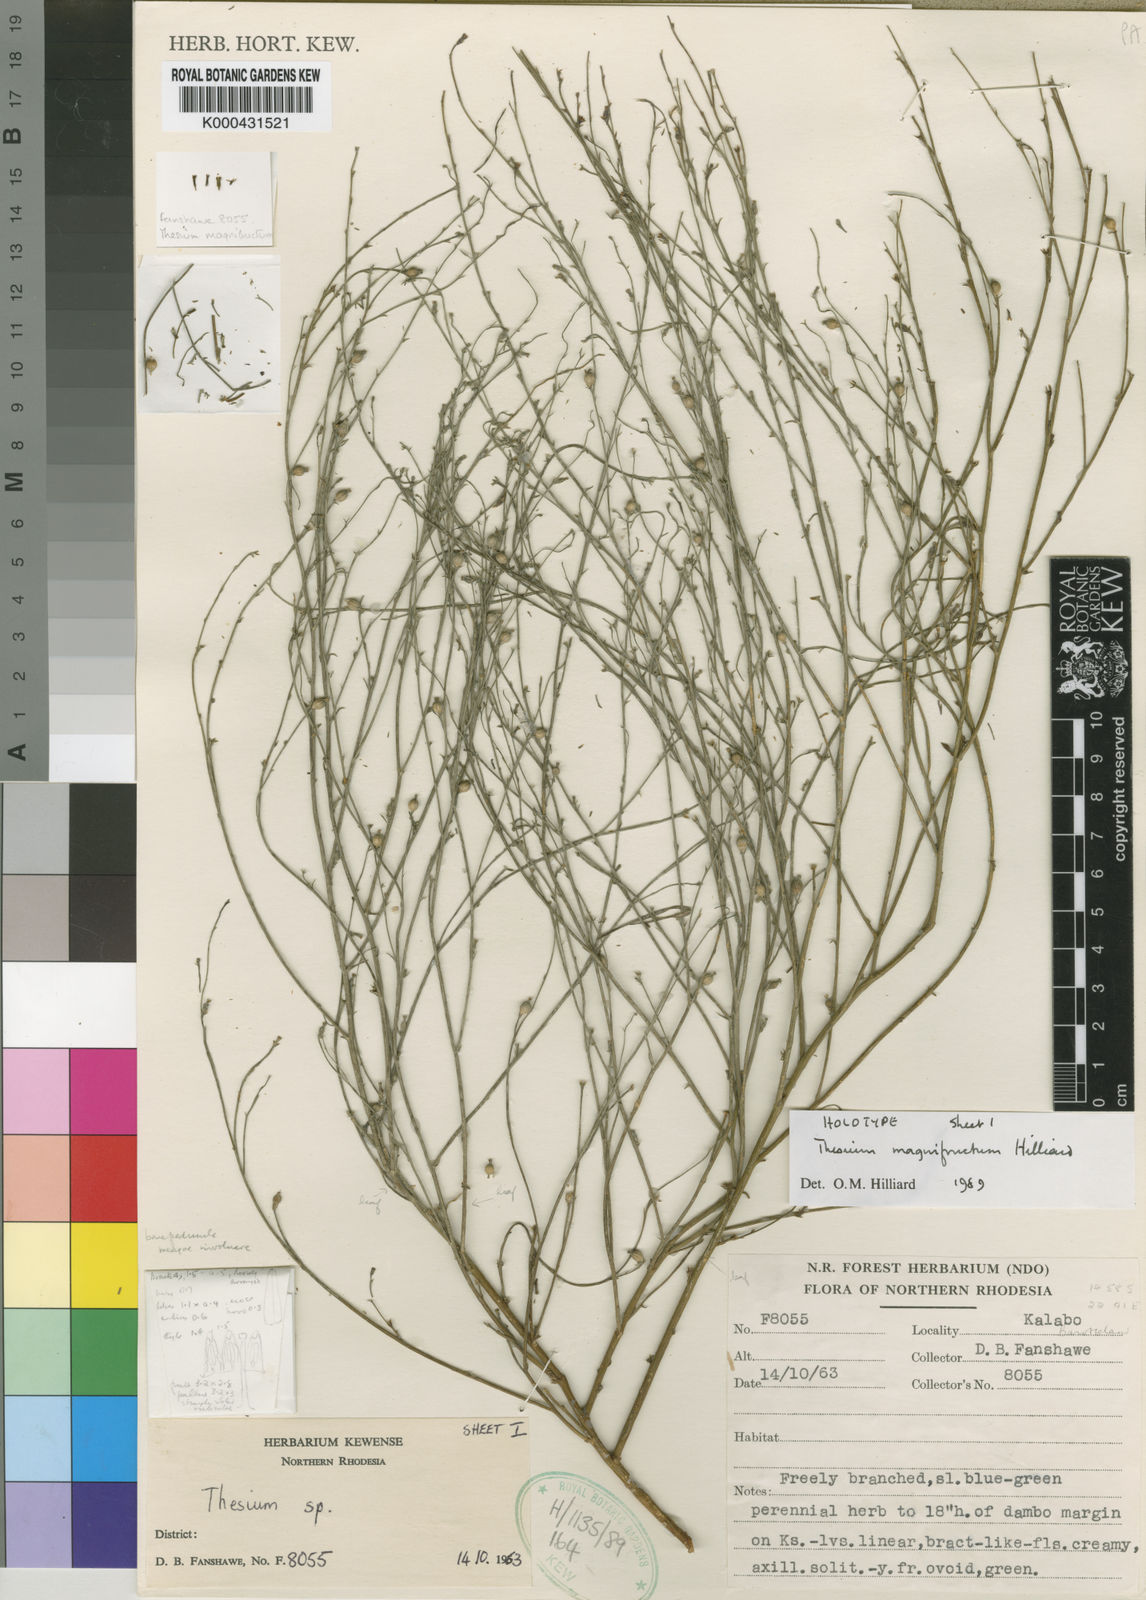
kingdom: Plantae
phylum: Tracheophyta
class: Magnoliopsida
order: Santalales
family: Thesiaceae
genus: Thesium
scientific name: Thesium magnifructum
